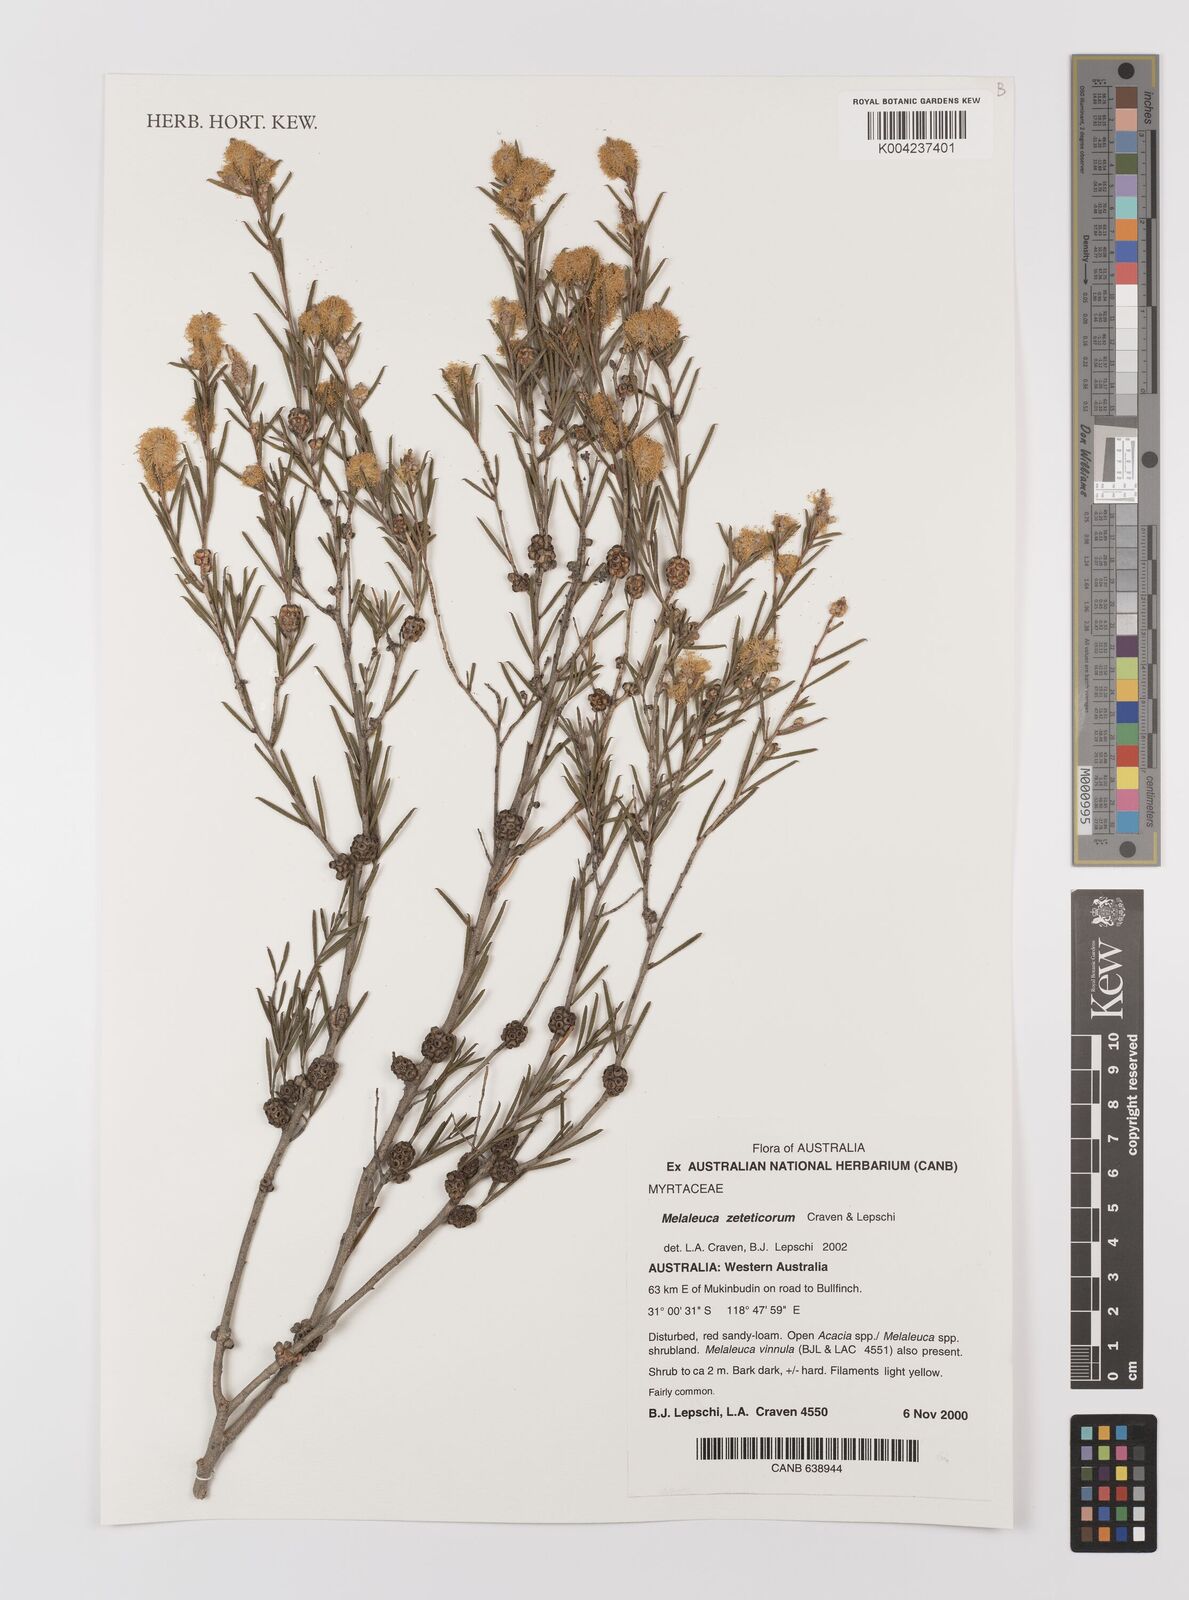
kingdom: Plantae
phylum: Tracheophyta
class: Magnoliopsida
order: Myrtales
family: Myrtaceae
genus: Melaleuca
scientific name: Melaleuca zeteticorum
